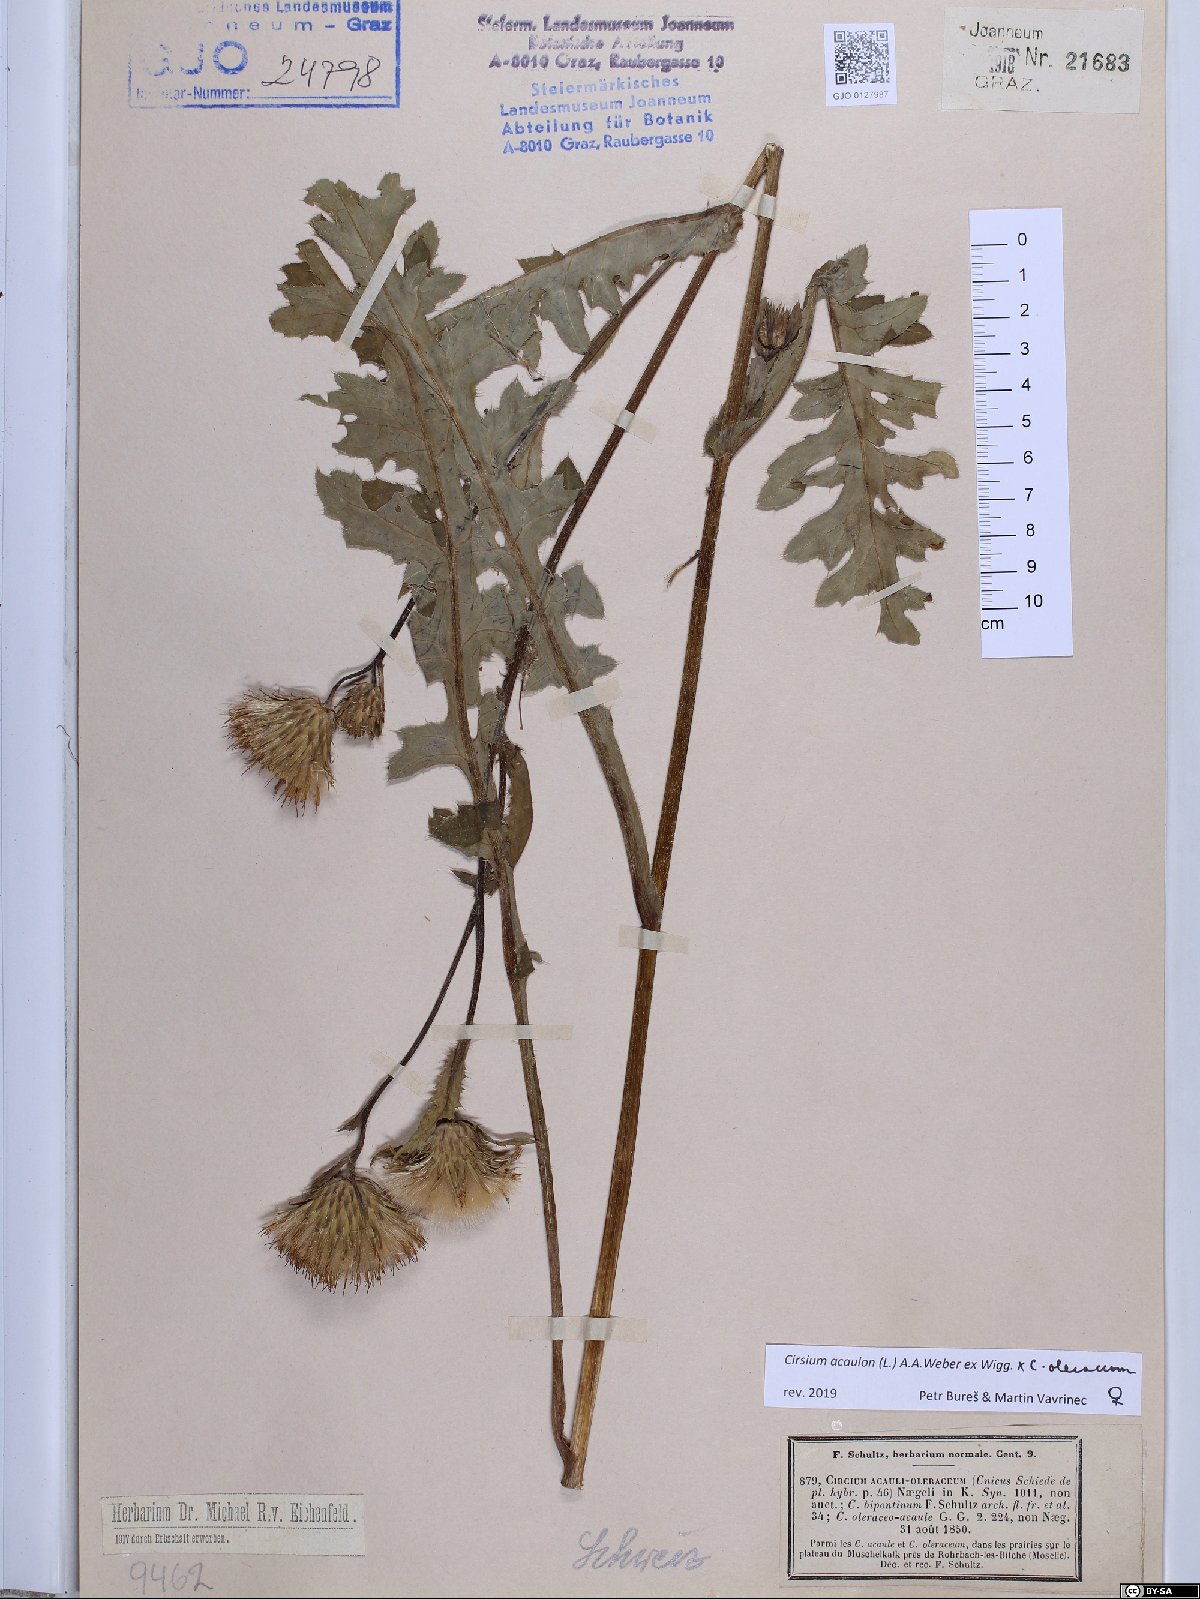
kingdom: Plantae
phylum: Tracheophyta
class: Magnoliopsida
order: Asterales
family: Asteraceae
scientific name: Asteraceae
